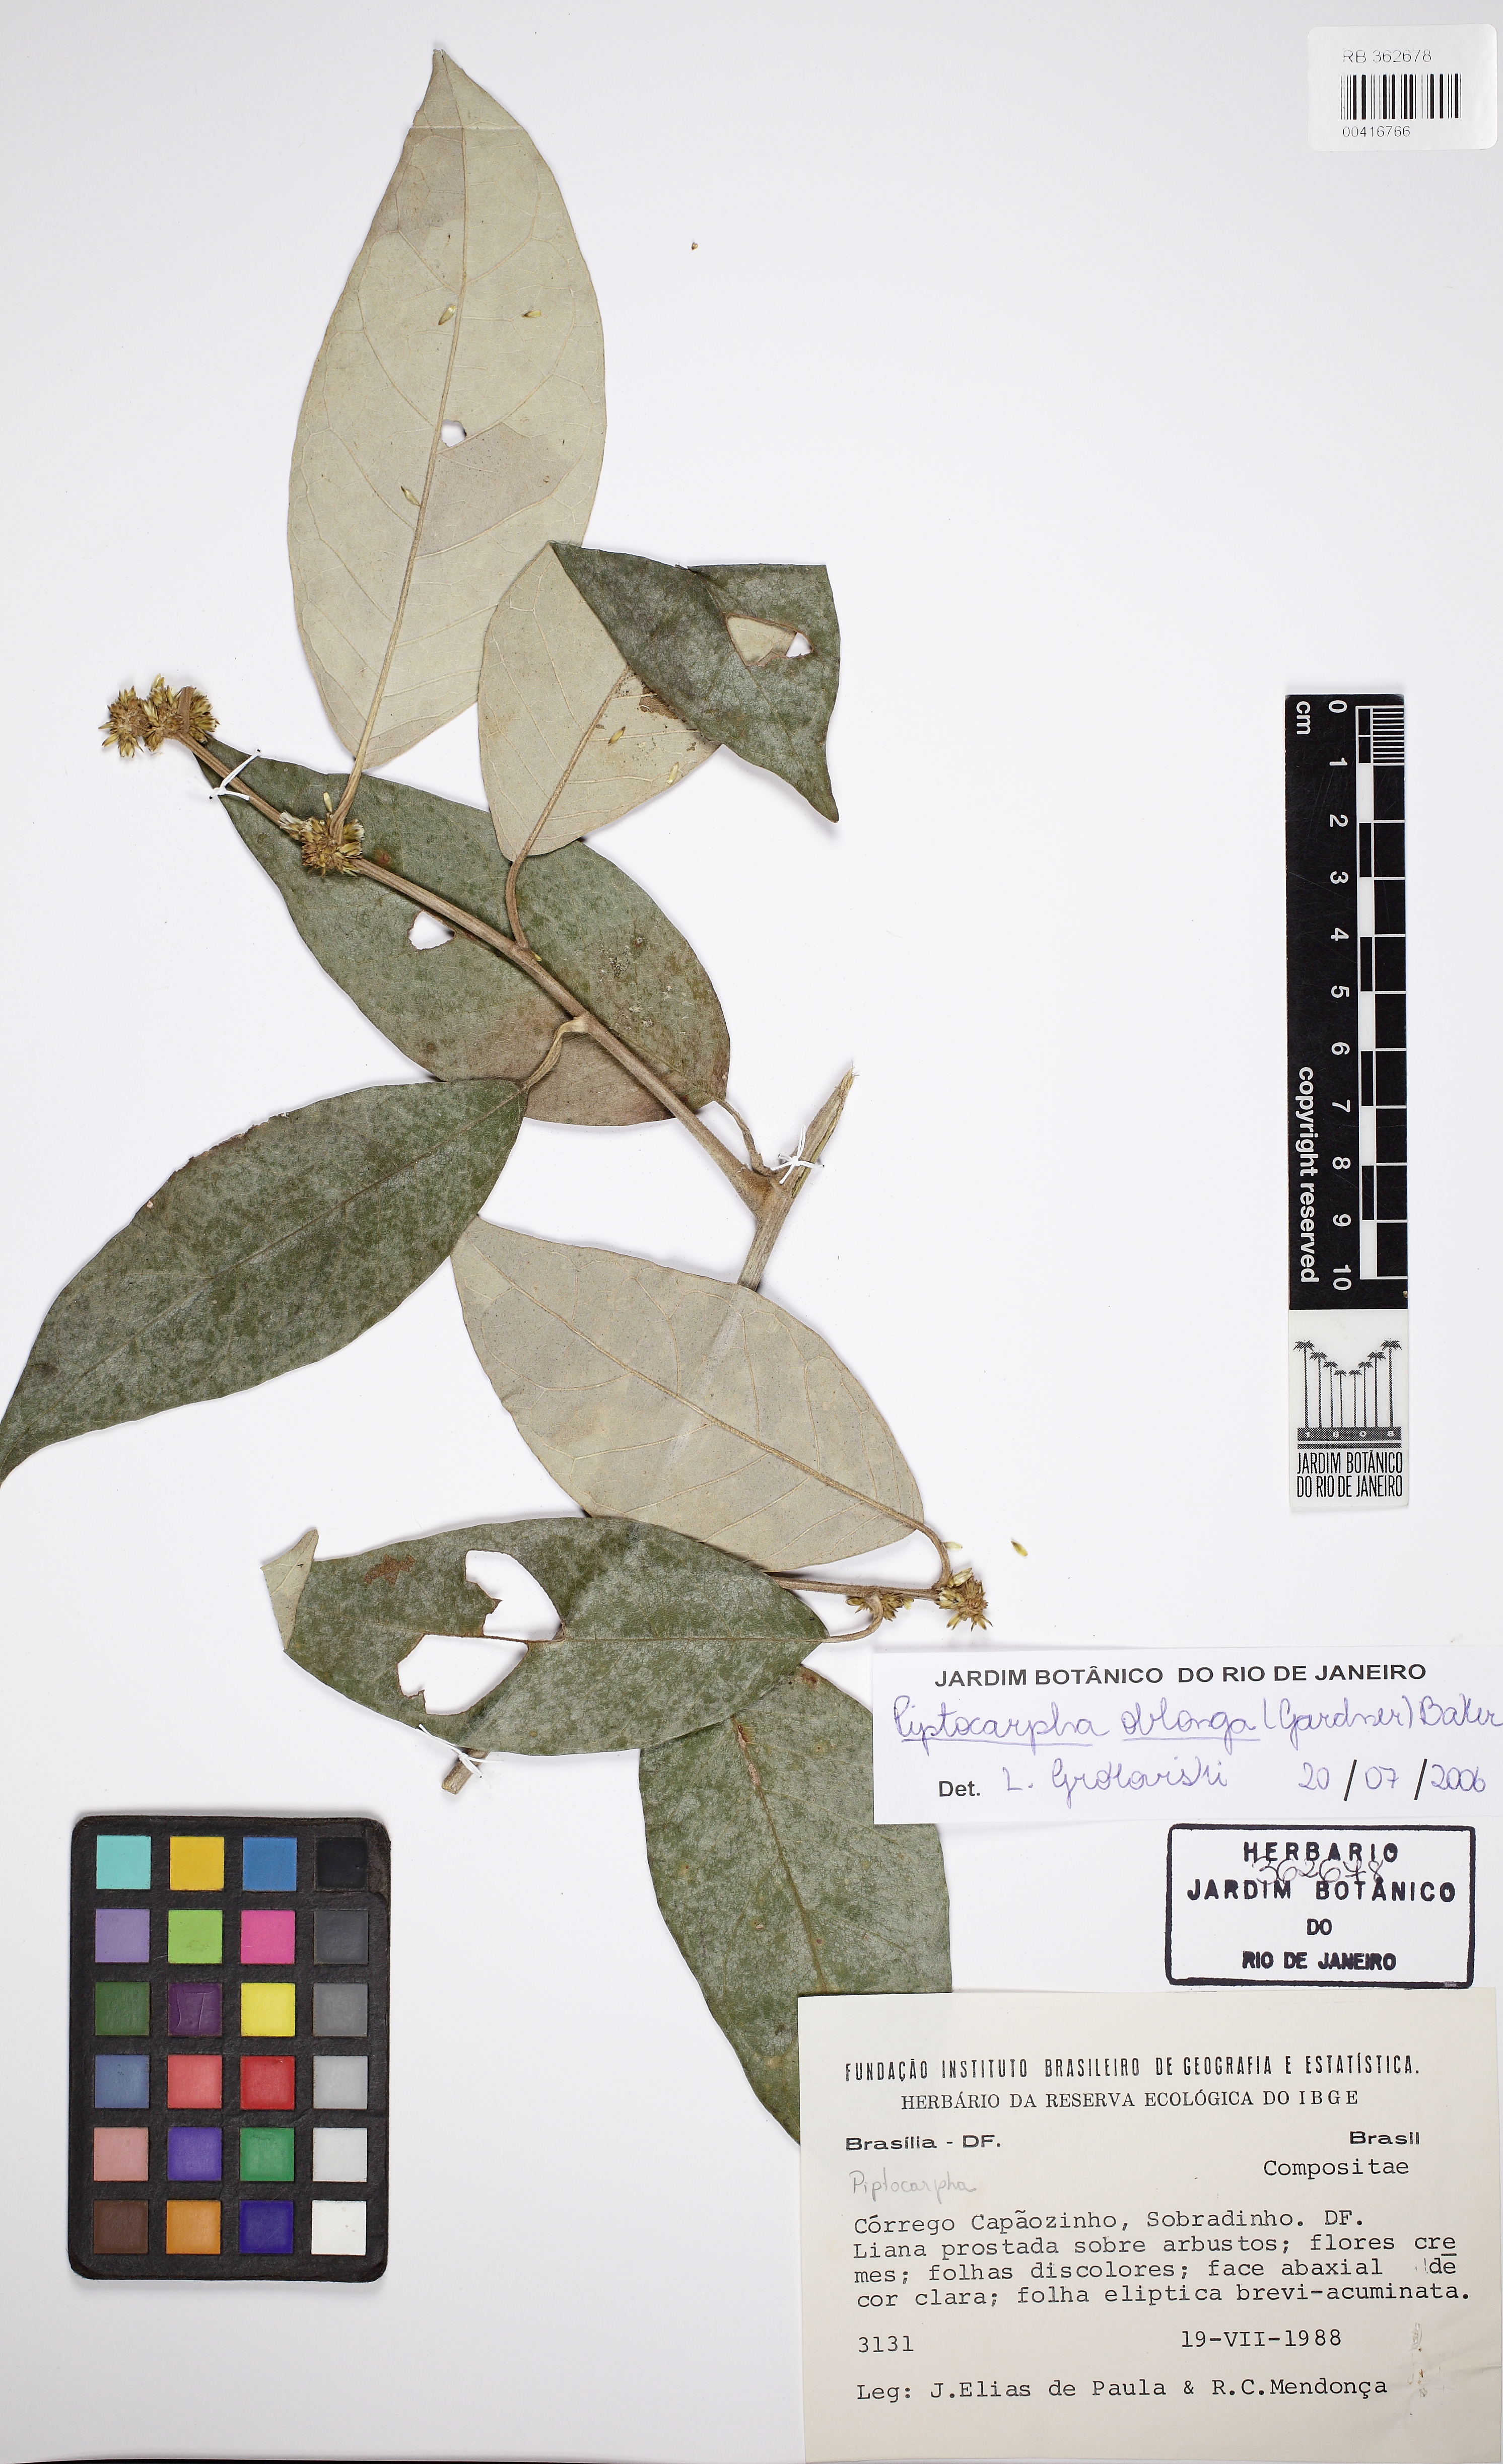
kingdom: Plantae
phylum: Tracheophyta
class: Magnoliopsida
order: Asterales
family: Asteraceae
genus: Piptocarpha
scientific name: Piptocarpha oblonga
